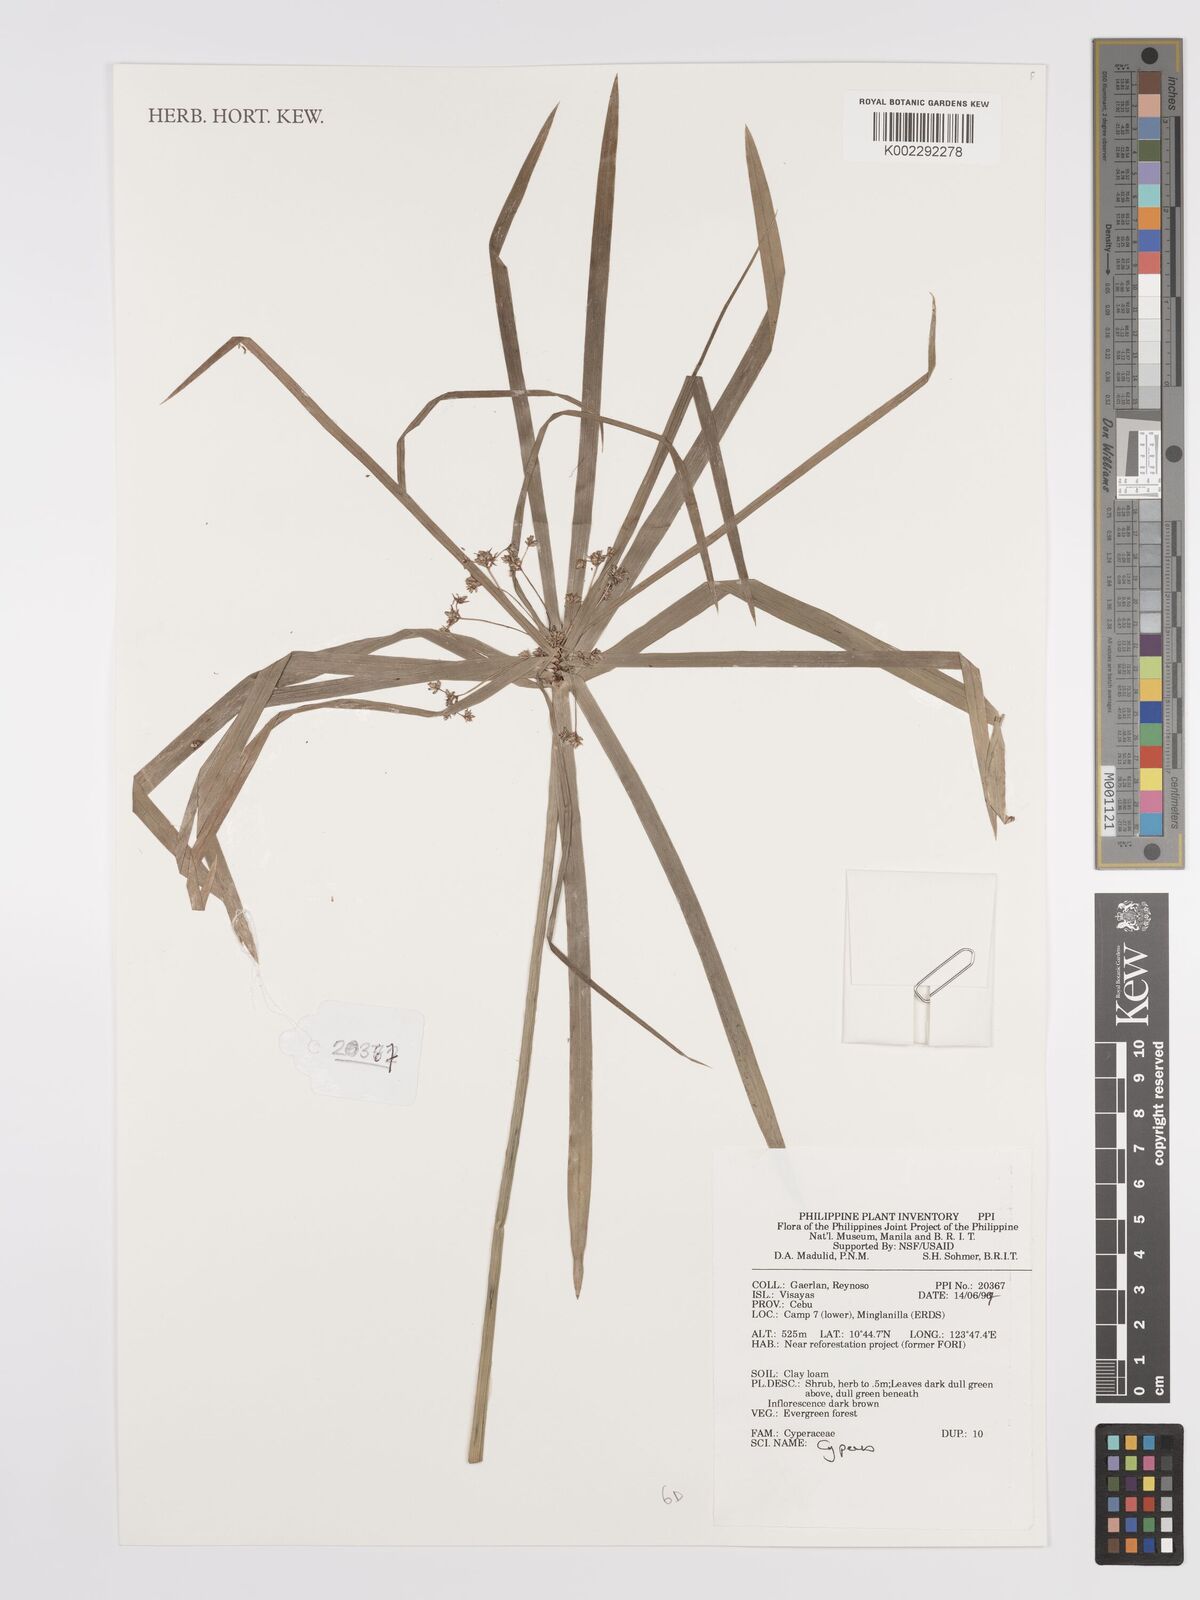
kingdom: Plantae
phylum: Tracheophyta
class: Liliopsida
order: Poales
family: Cyperaceae
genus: Cyperus
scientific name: Cyperus
